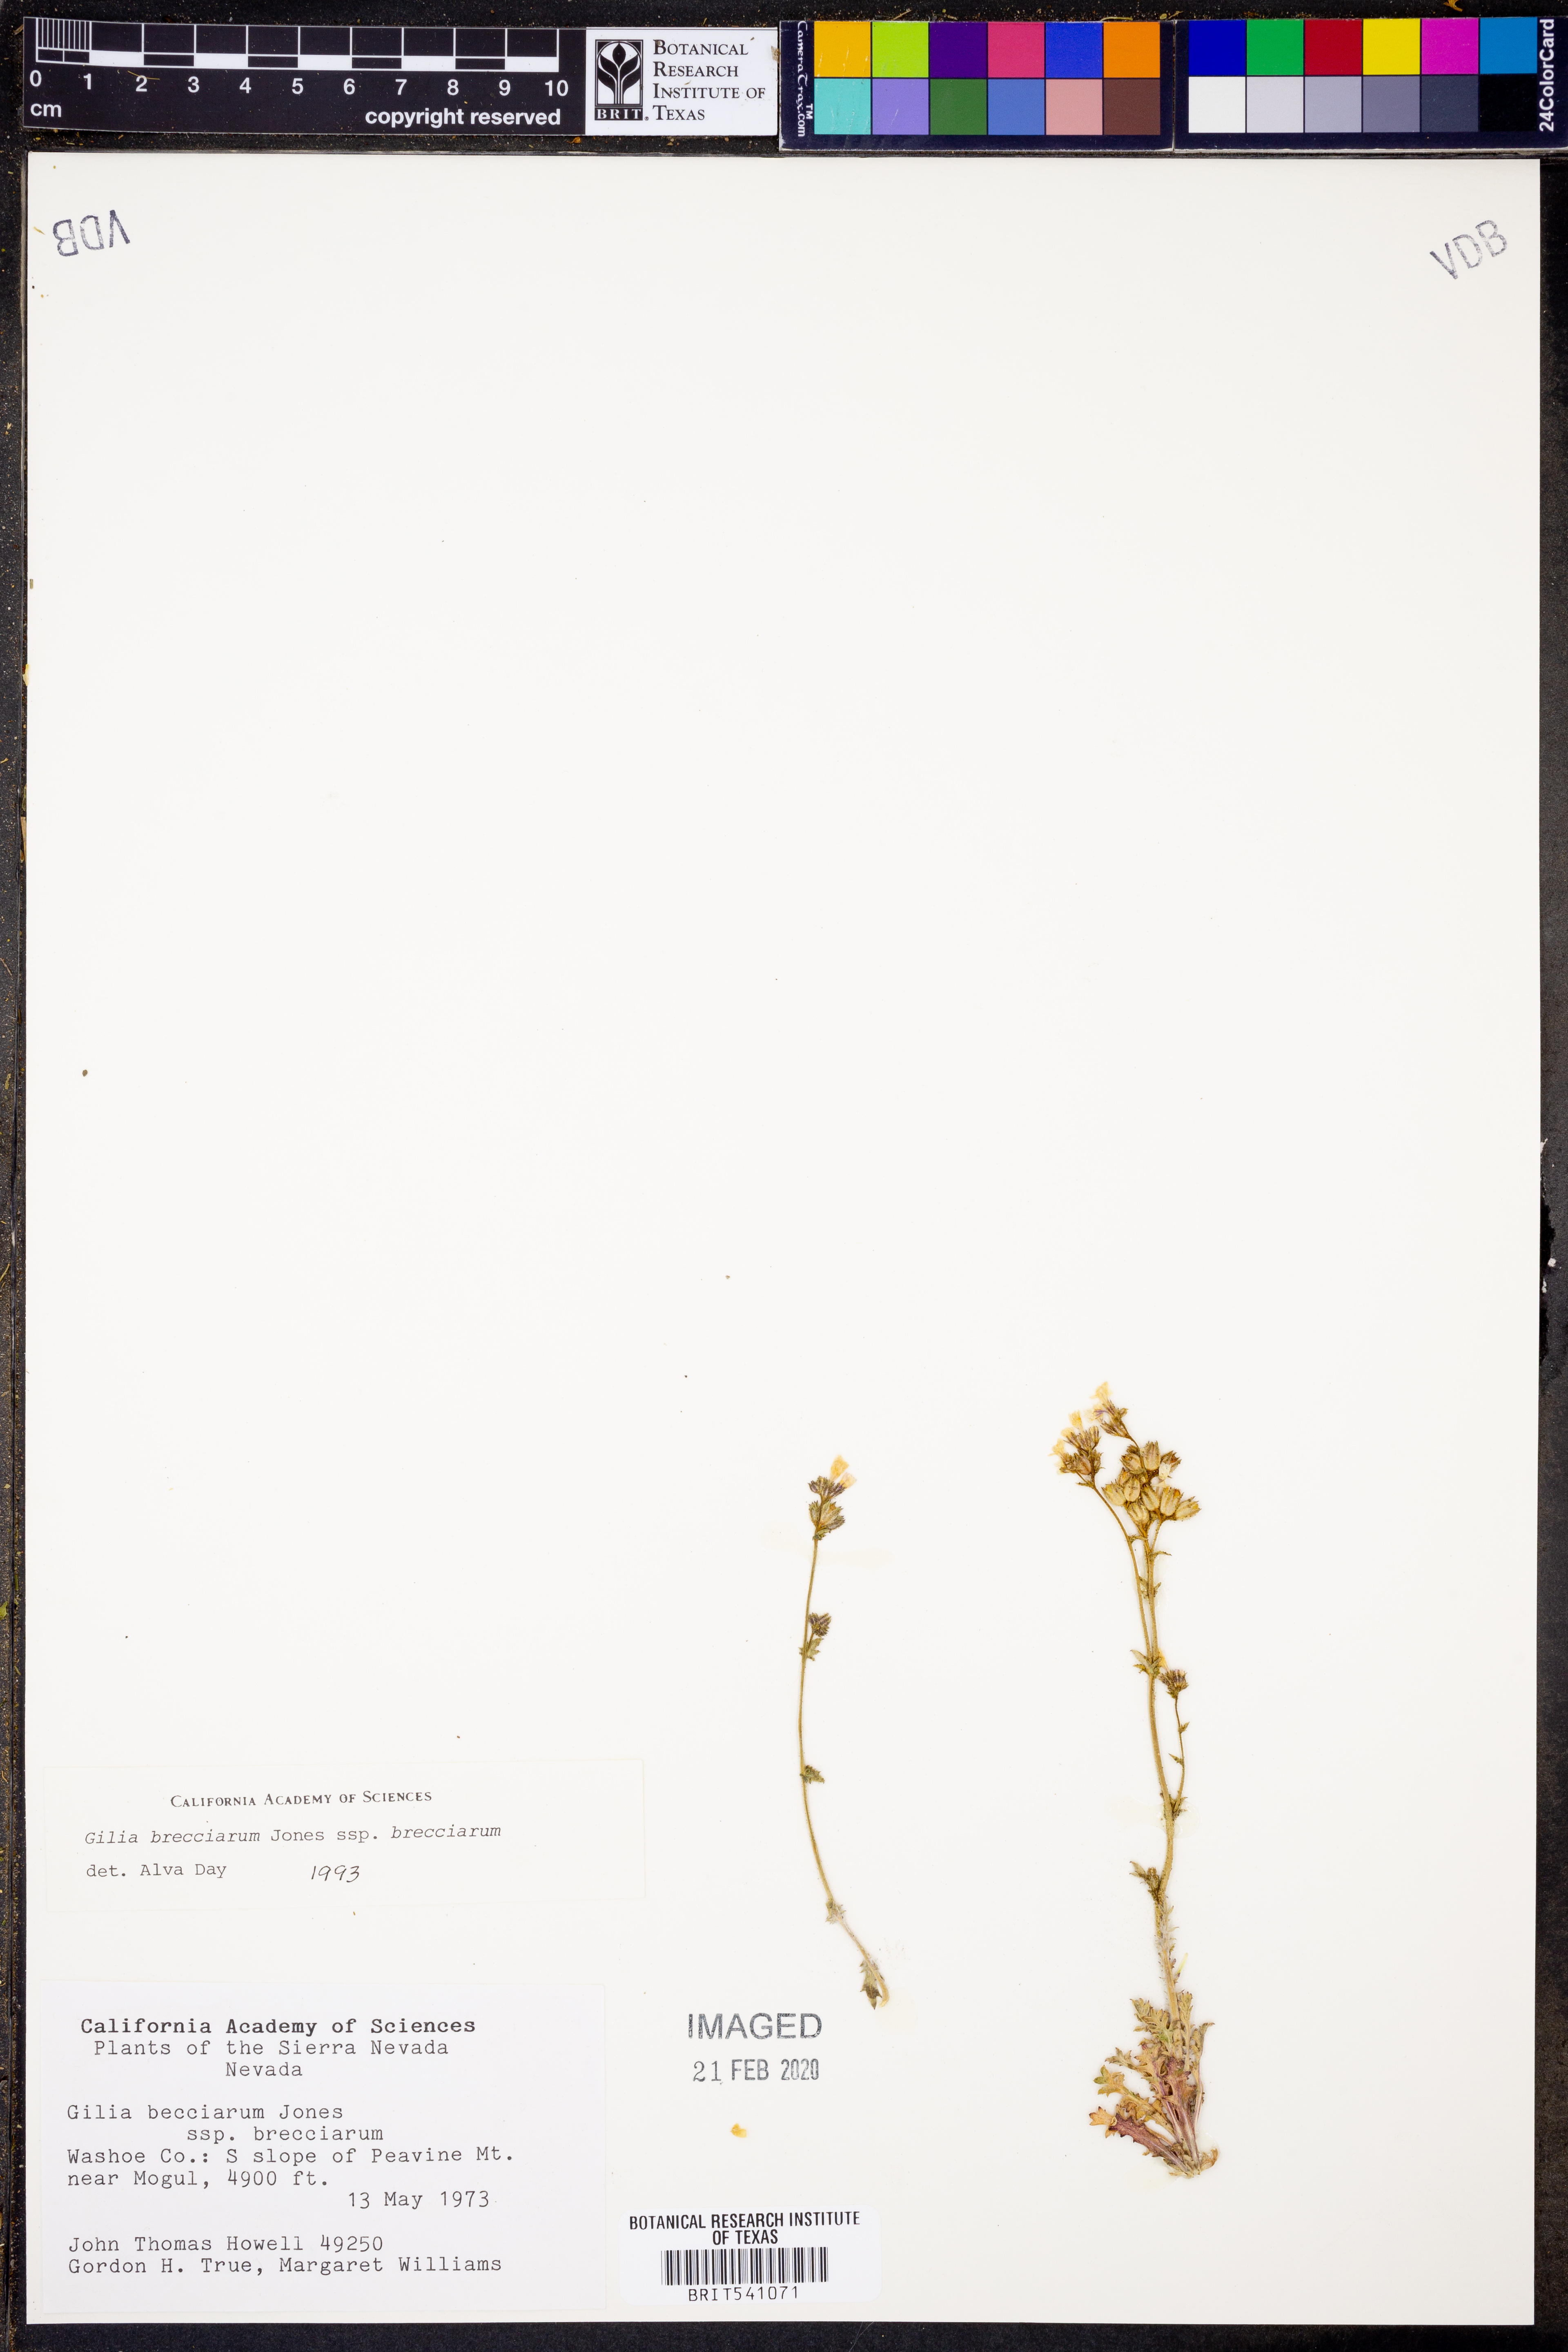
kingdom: Plantae
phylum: Tracheophyta
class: Magnoliopsida
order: Ericales
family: Polemoniaceae
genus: Gilia
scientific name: Gilia brecciarum
